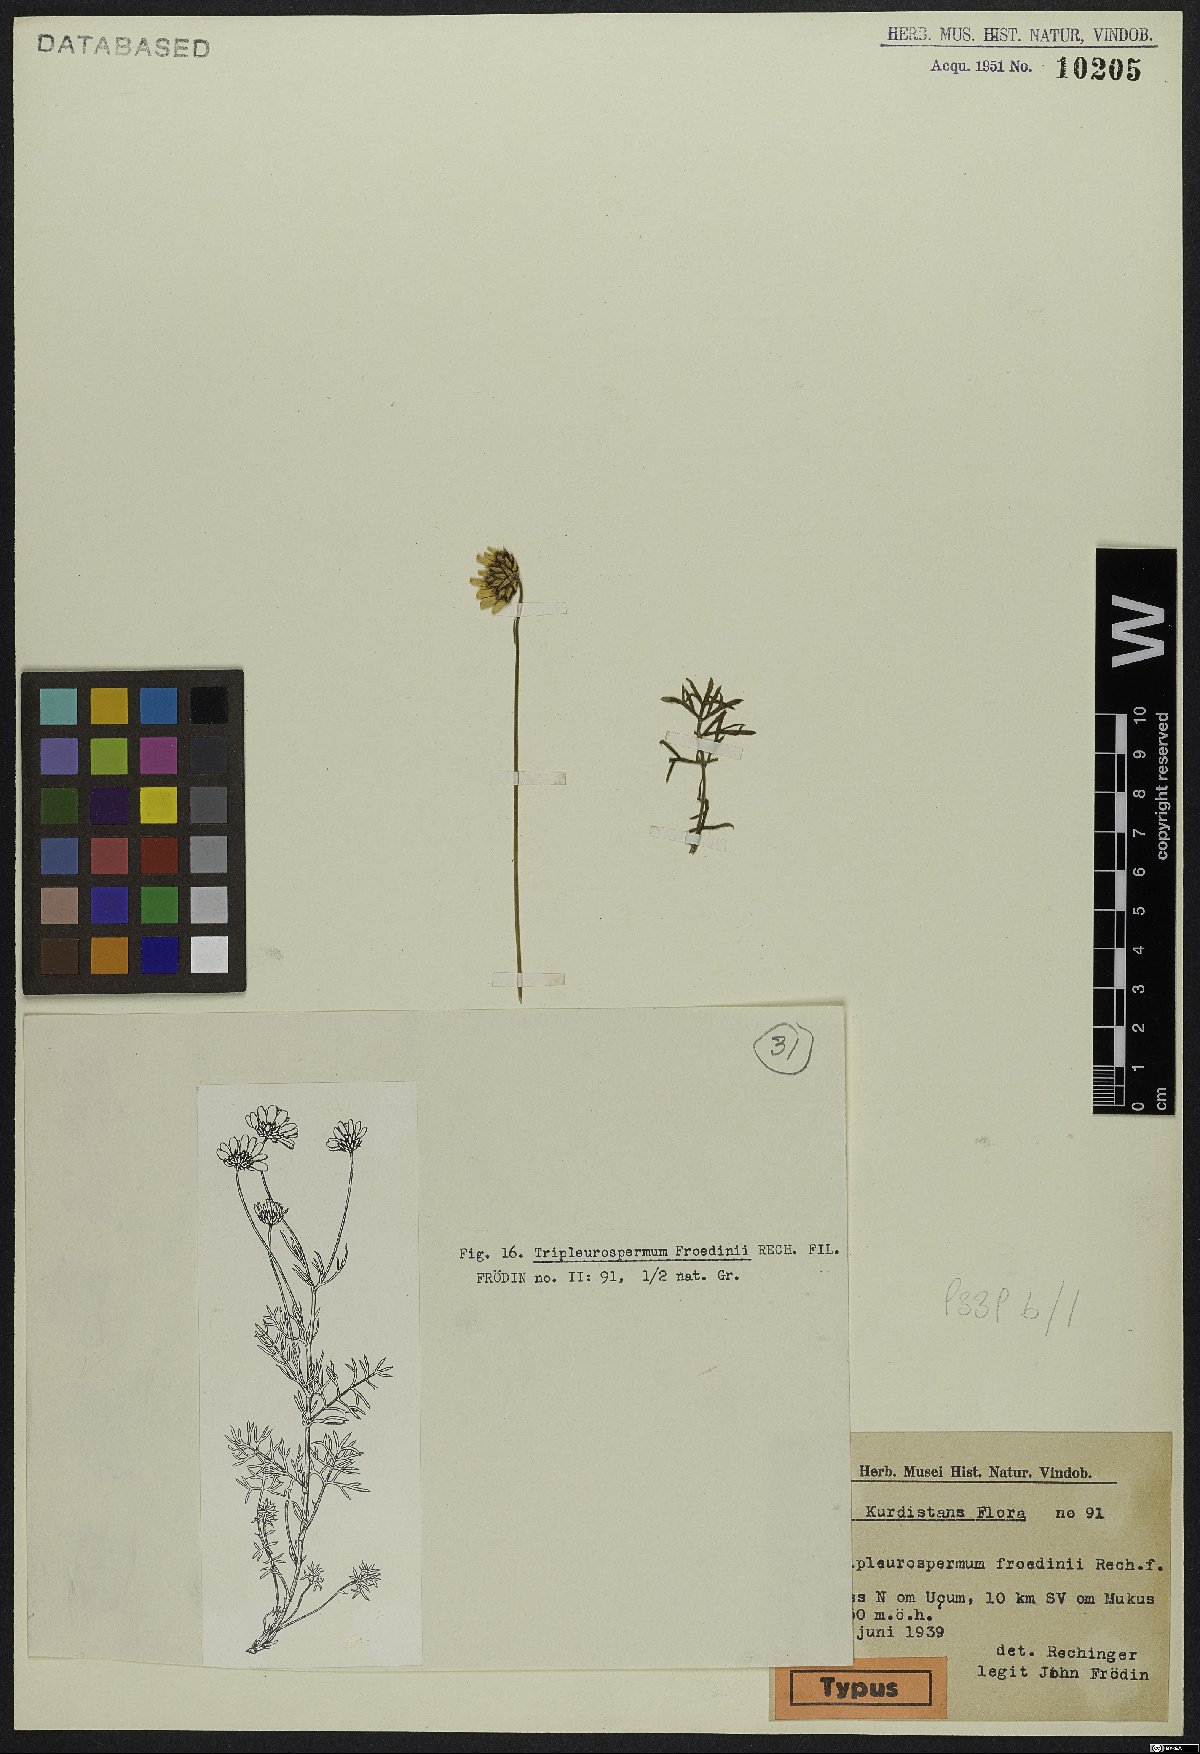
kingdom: Plantae
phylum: Tracheophyta
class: Magnoliopsida
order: Asterales
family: Asteraceae
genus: Tripleurospermum
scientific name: Tripleurospermum froedinii
